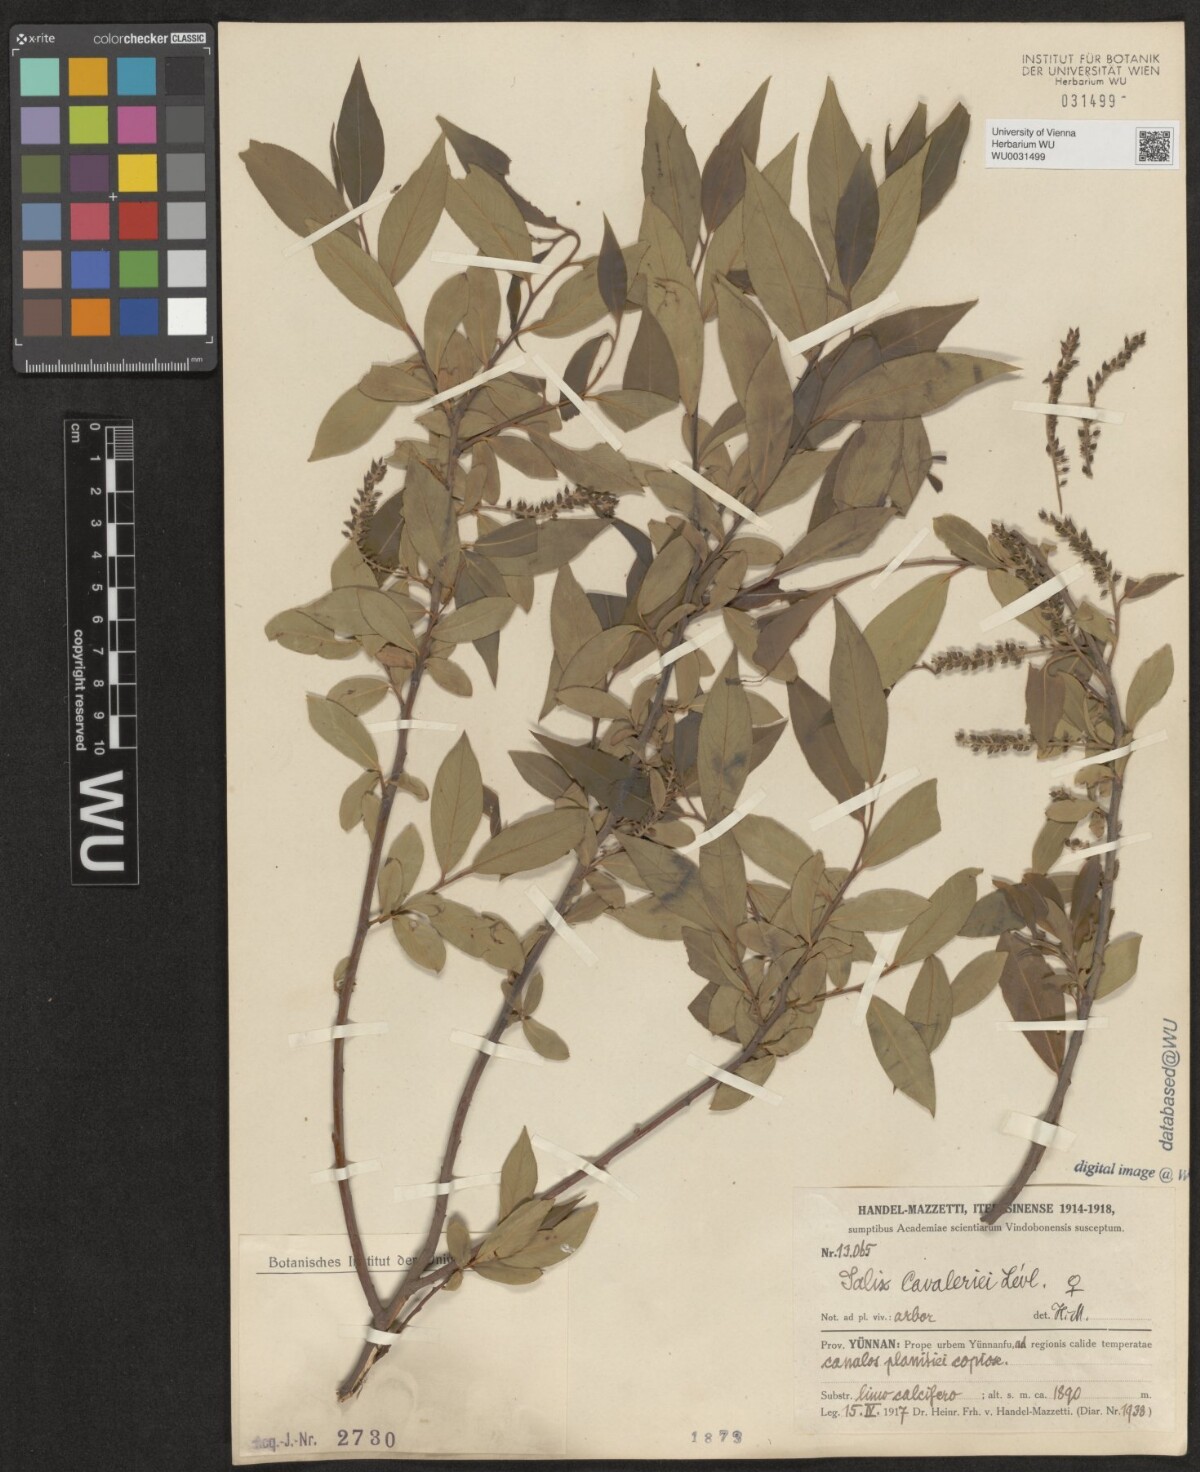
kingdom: Plantae
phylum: Tracheophyta
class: Magnoliopsida
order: Malpighiales
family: Salicaceae
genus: Salix
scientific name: Salix cavaleriei
